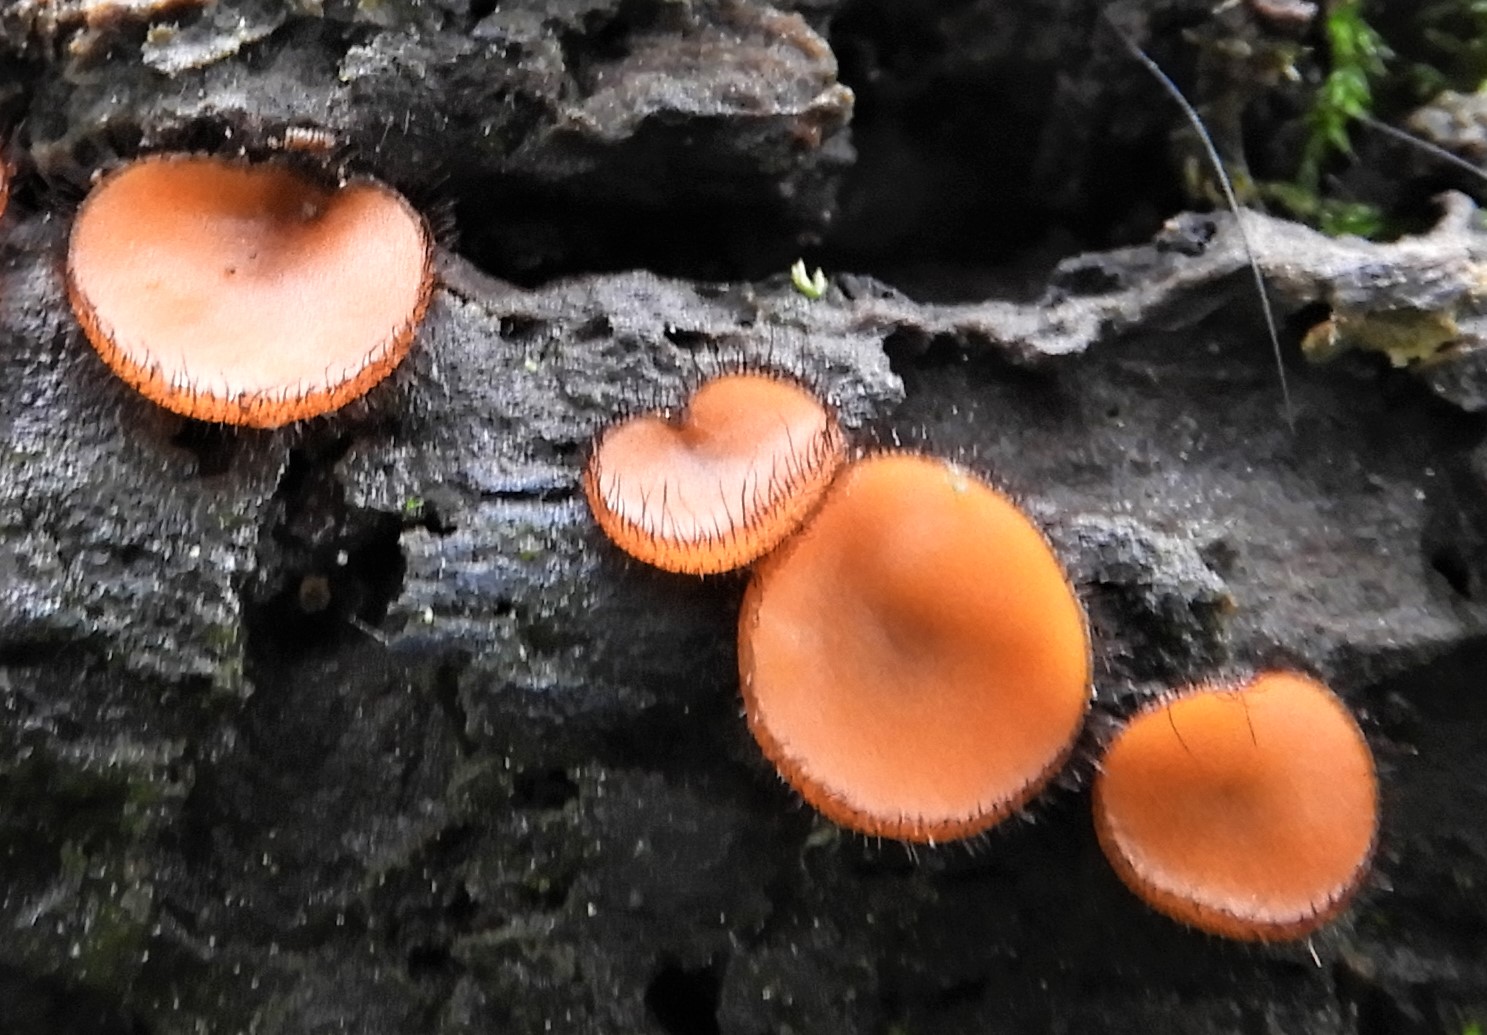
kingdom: Fungi
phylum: Ascomycota
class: Pezizomycetes
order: Pezizales
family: Pyronemataceae
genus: Scutellinia
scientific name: Scutellinia scutellata
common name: frynset skjoldbæger
